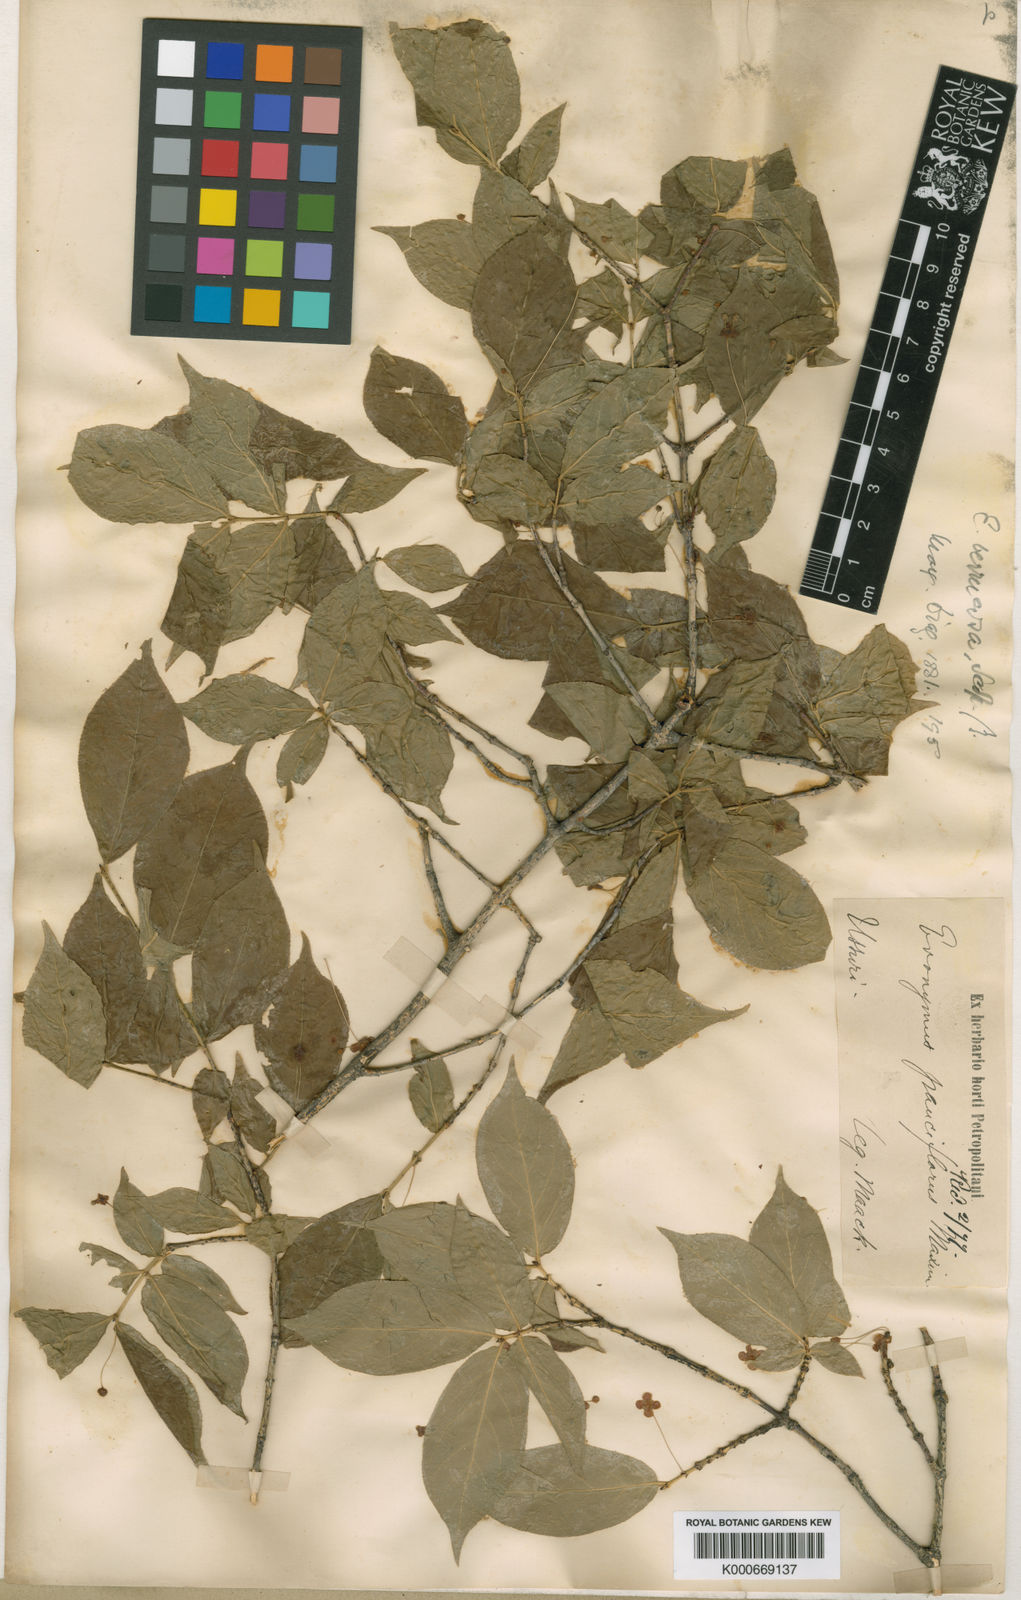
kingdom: Plantae
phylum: Tracheophyta
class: Magnoliopsida
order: Celastrales
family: Celastraceae
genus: Euonymus
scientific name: Euonymus verrucosus
